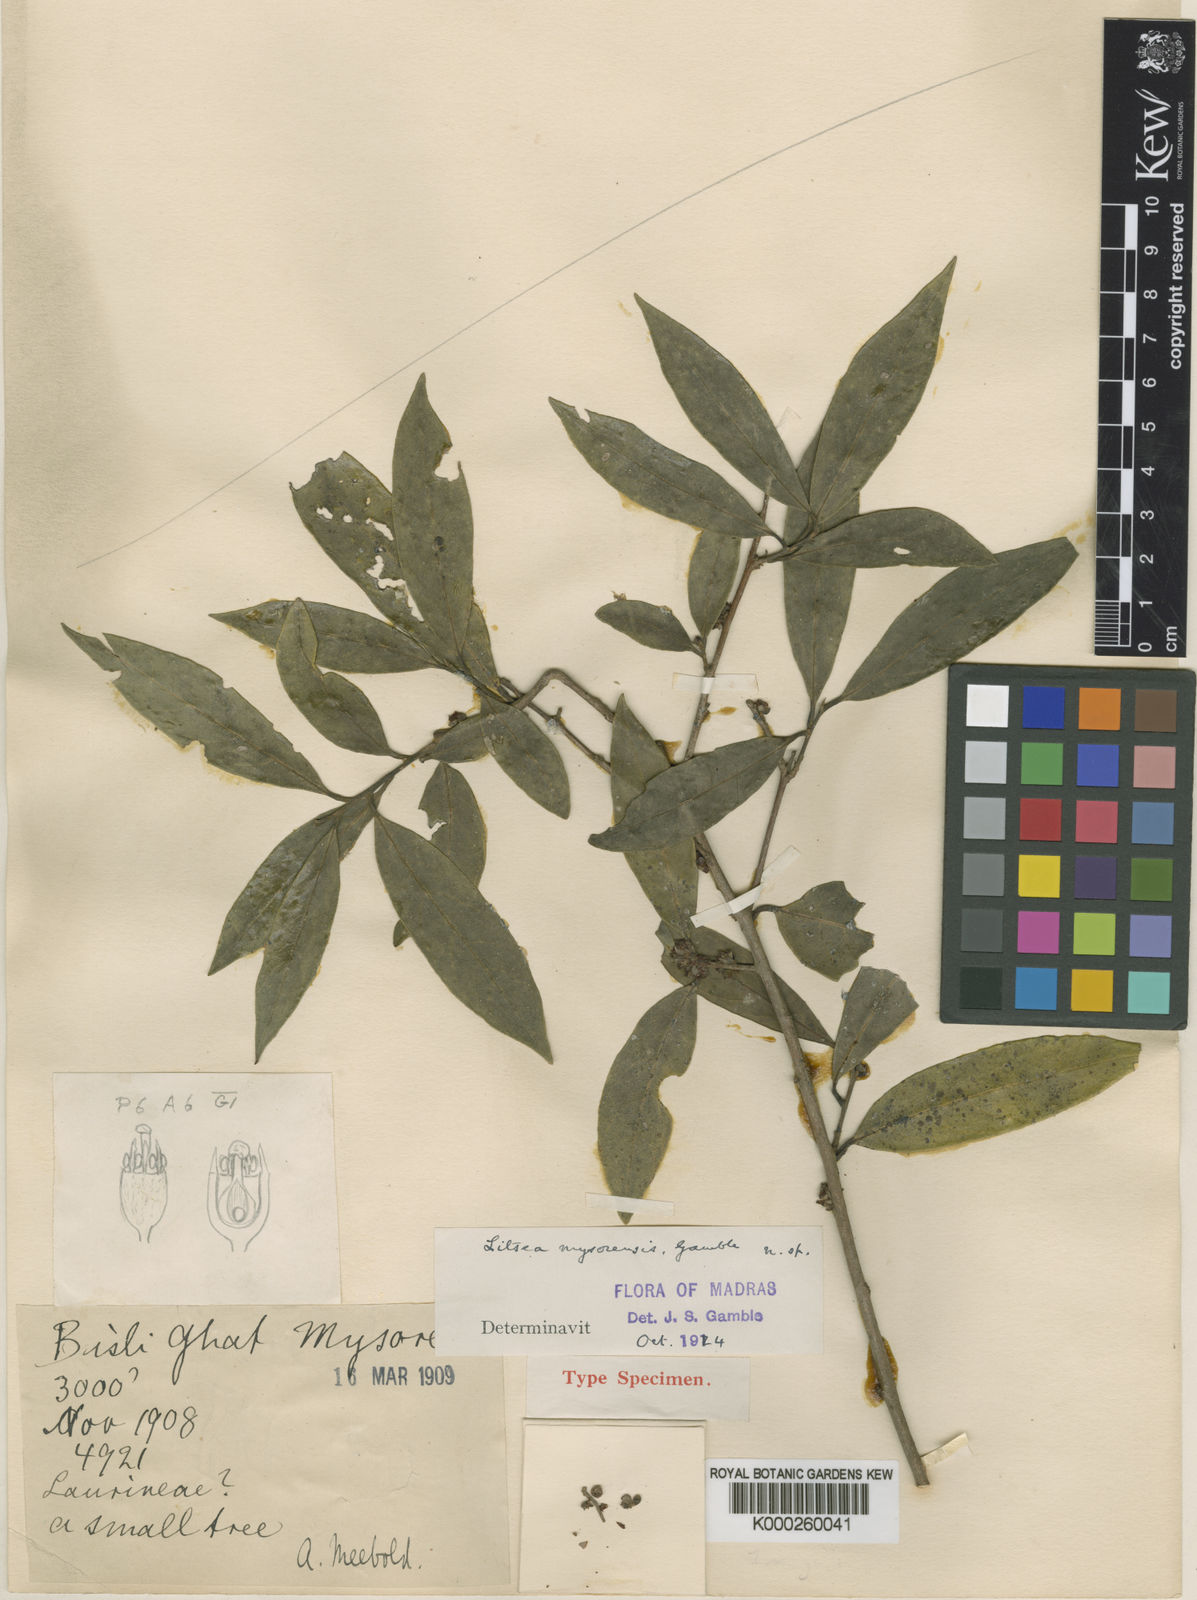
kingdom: Plantae
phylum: Tracheophyta
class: Magnoliopsida
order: Laurales
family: Lauraceae
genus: Litsea
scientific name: Litsea mysorensis
